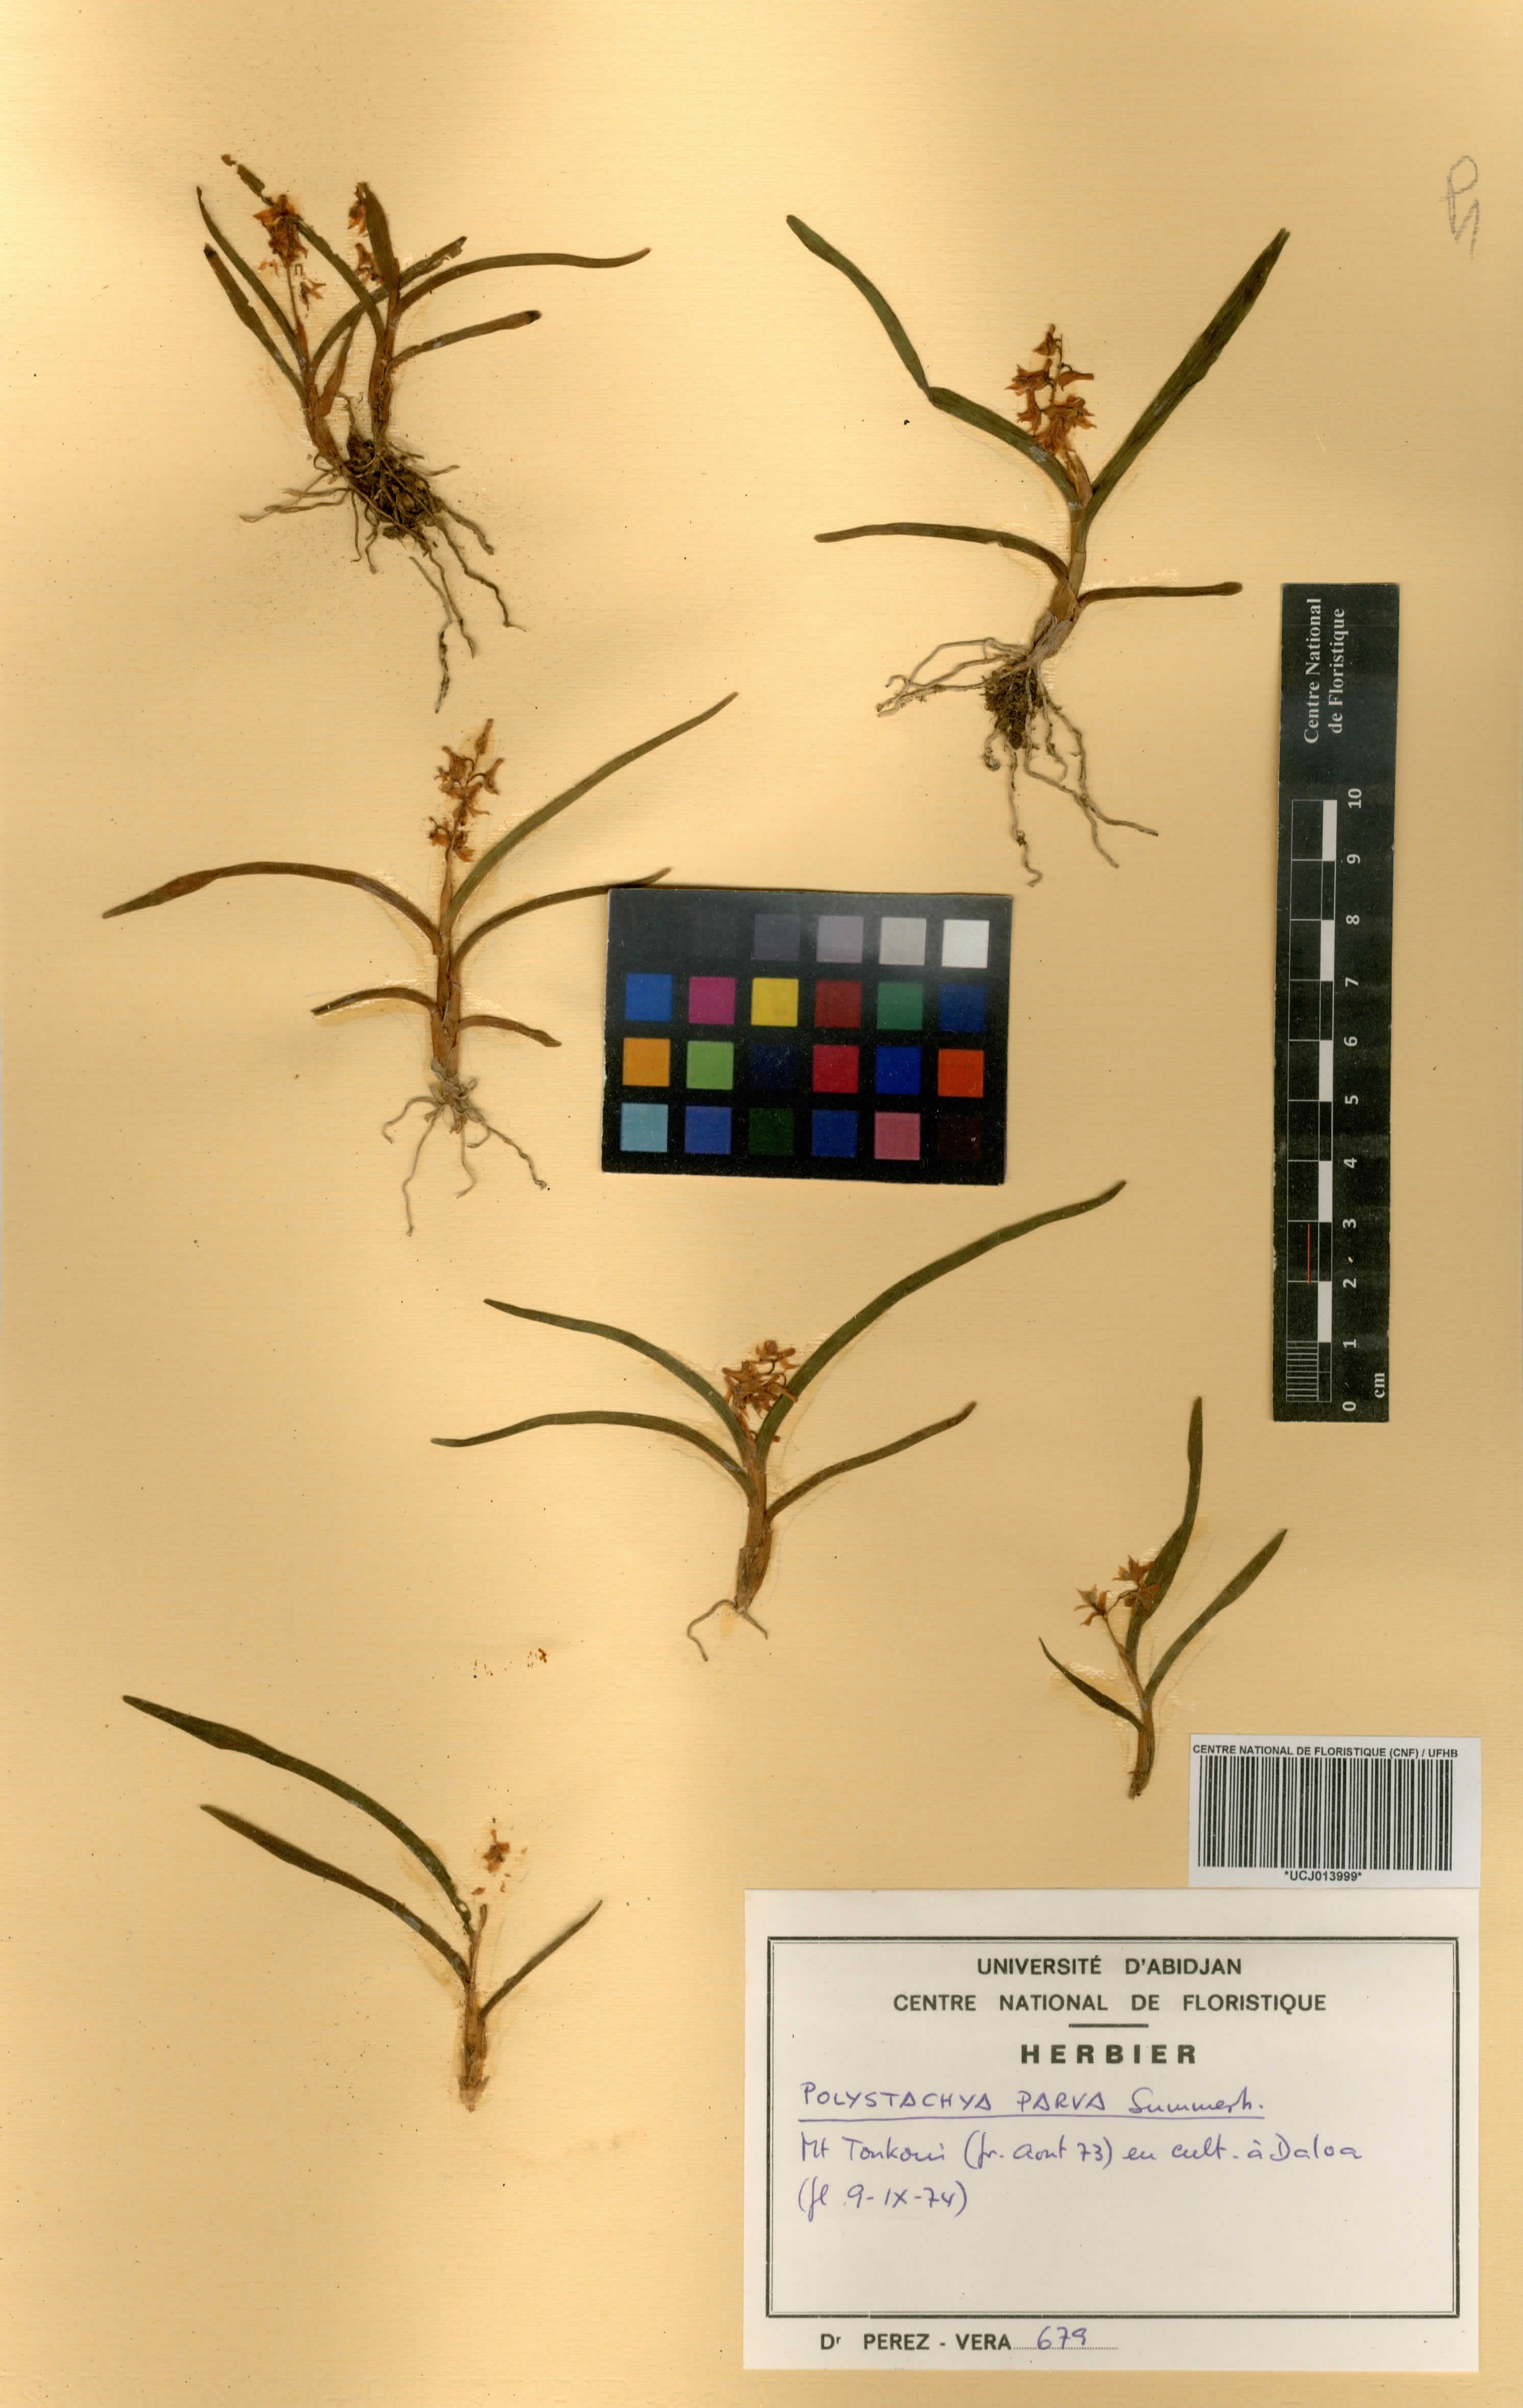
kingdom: Plantae
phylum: Tracheophyta
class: Liliopsida
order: Asparagales
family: Orchidaceae
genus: Polystachya
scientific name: Polystachya parva
